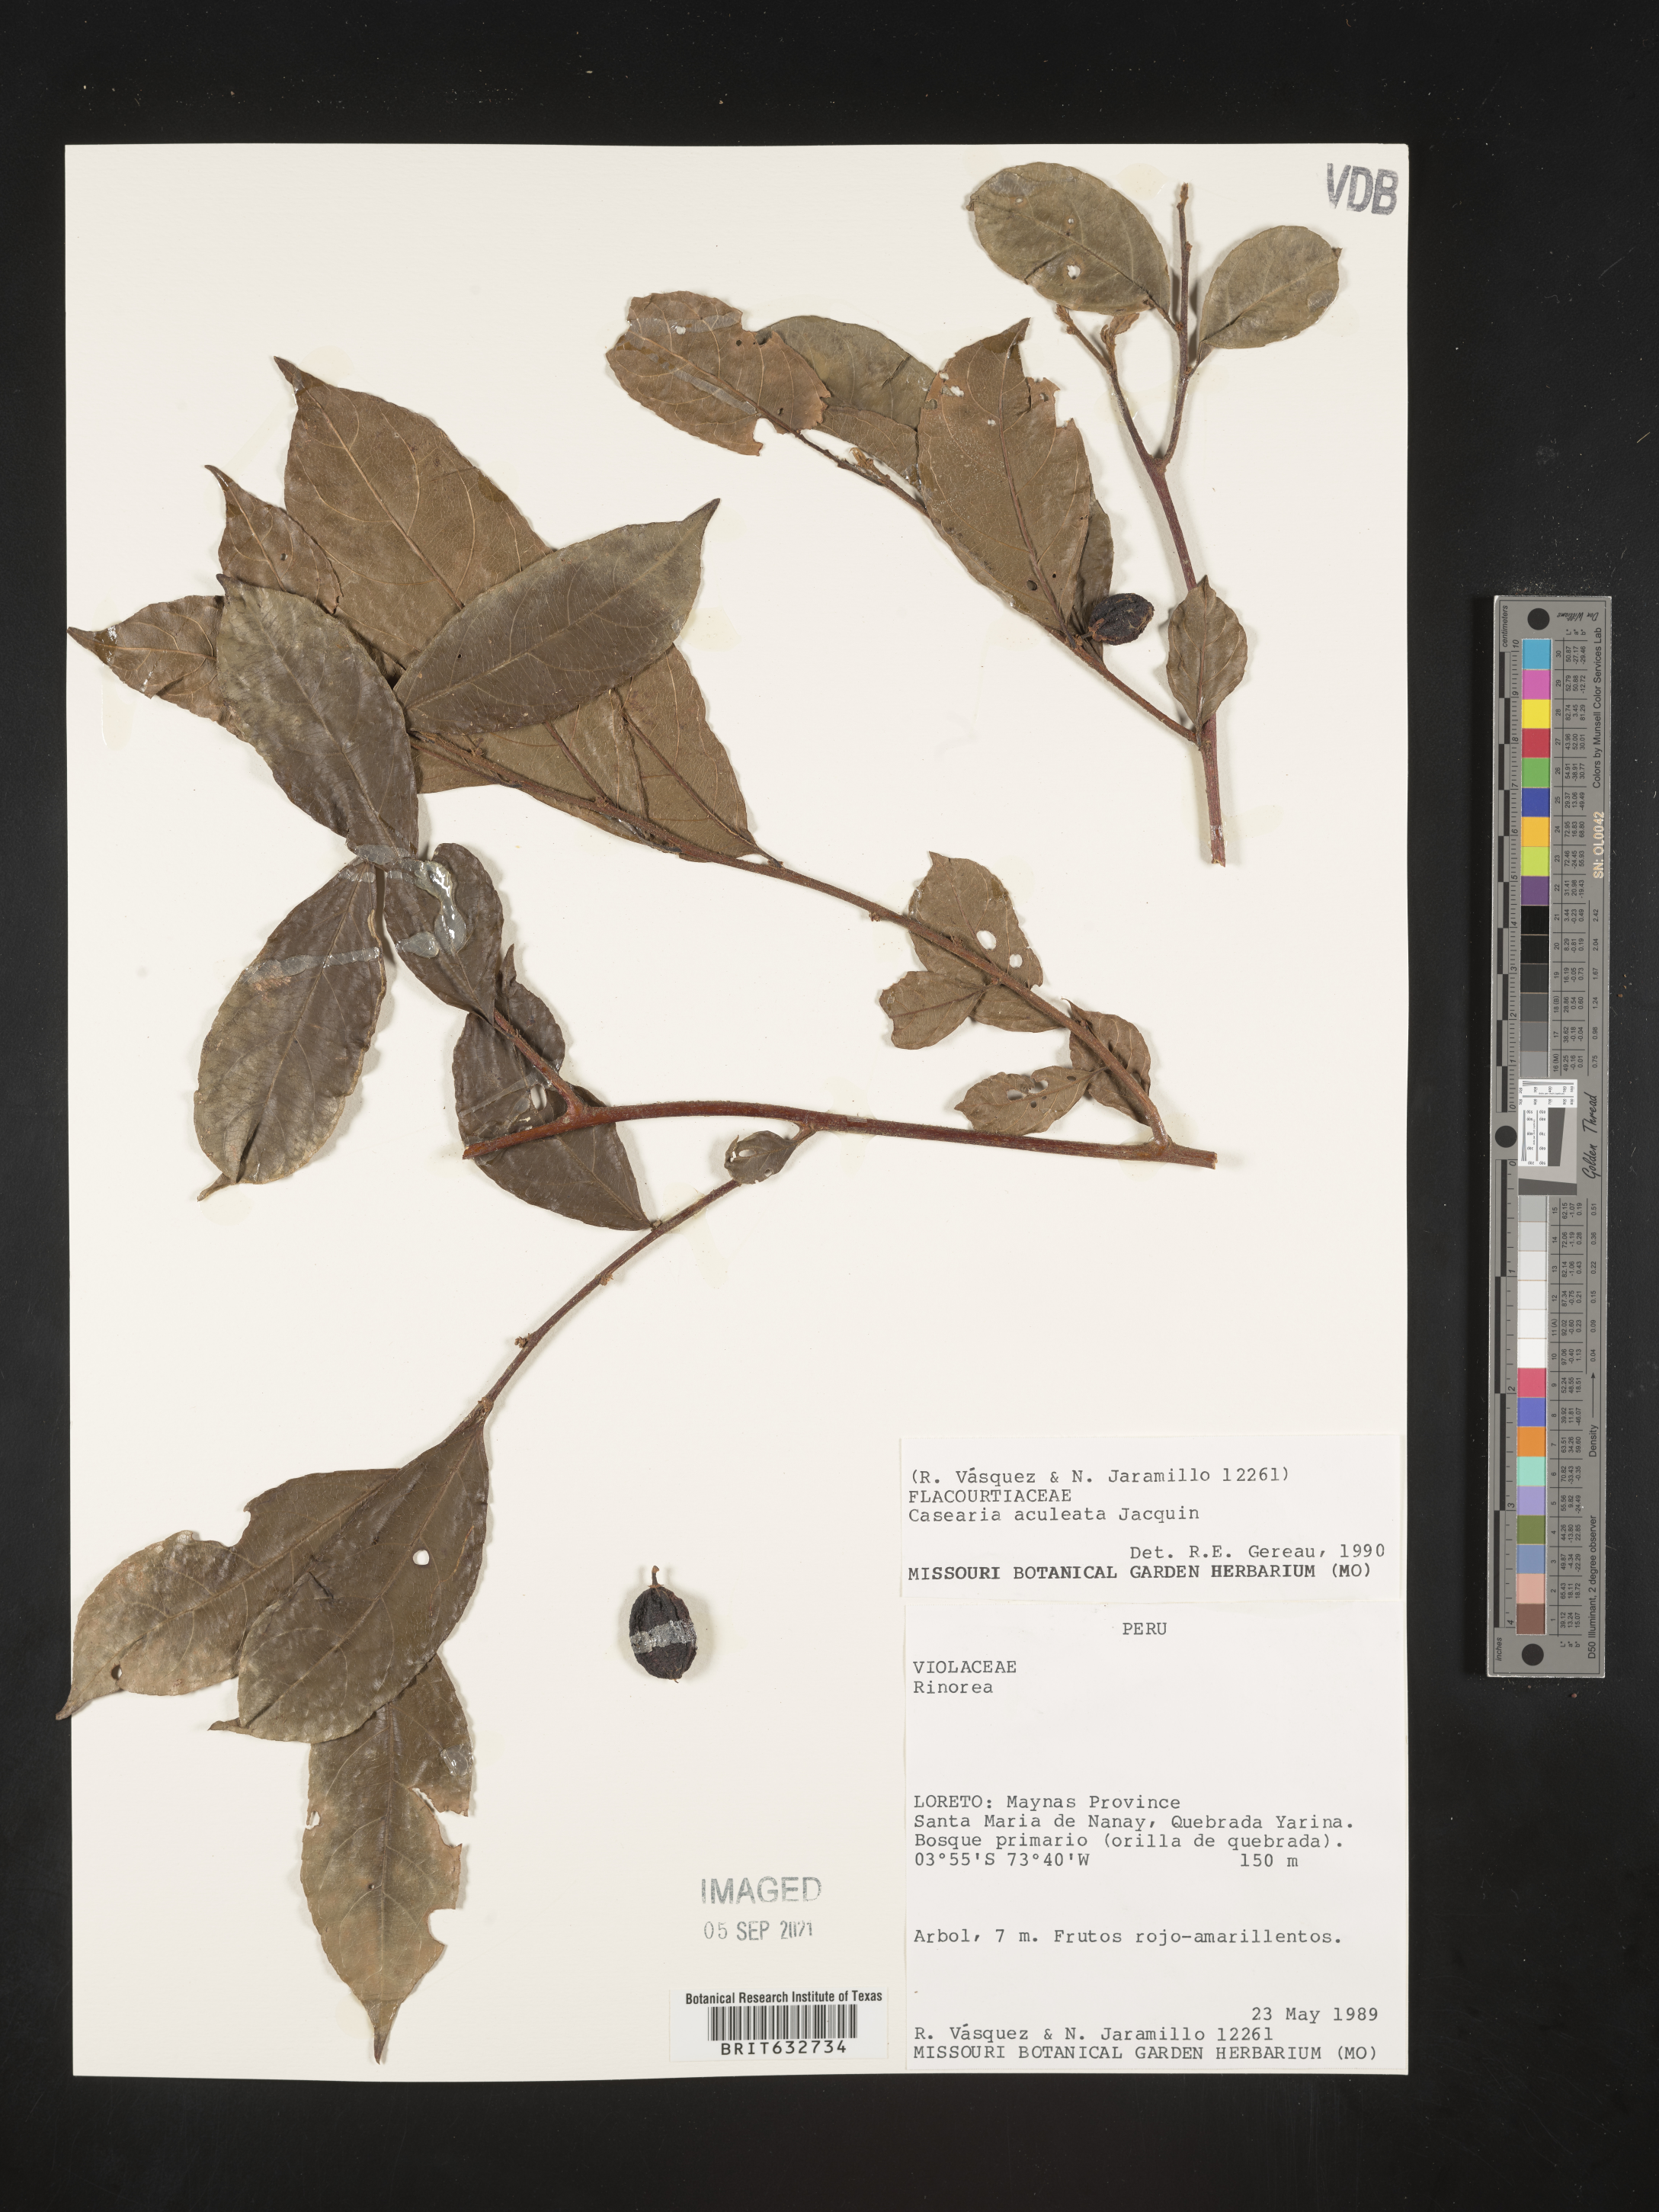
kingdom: Plantae
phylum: Tracheophyta
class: Magnoliopsida
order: Malpighiales
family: Salicaceae
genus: Casearia
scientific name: Casearia
